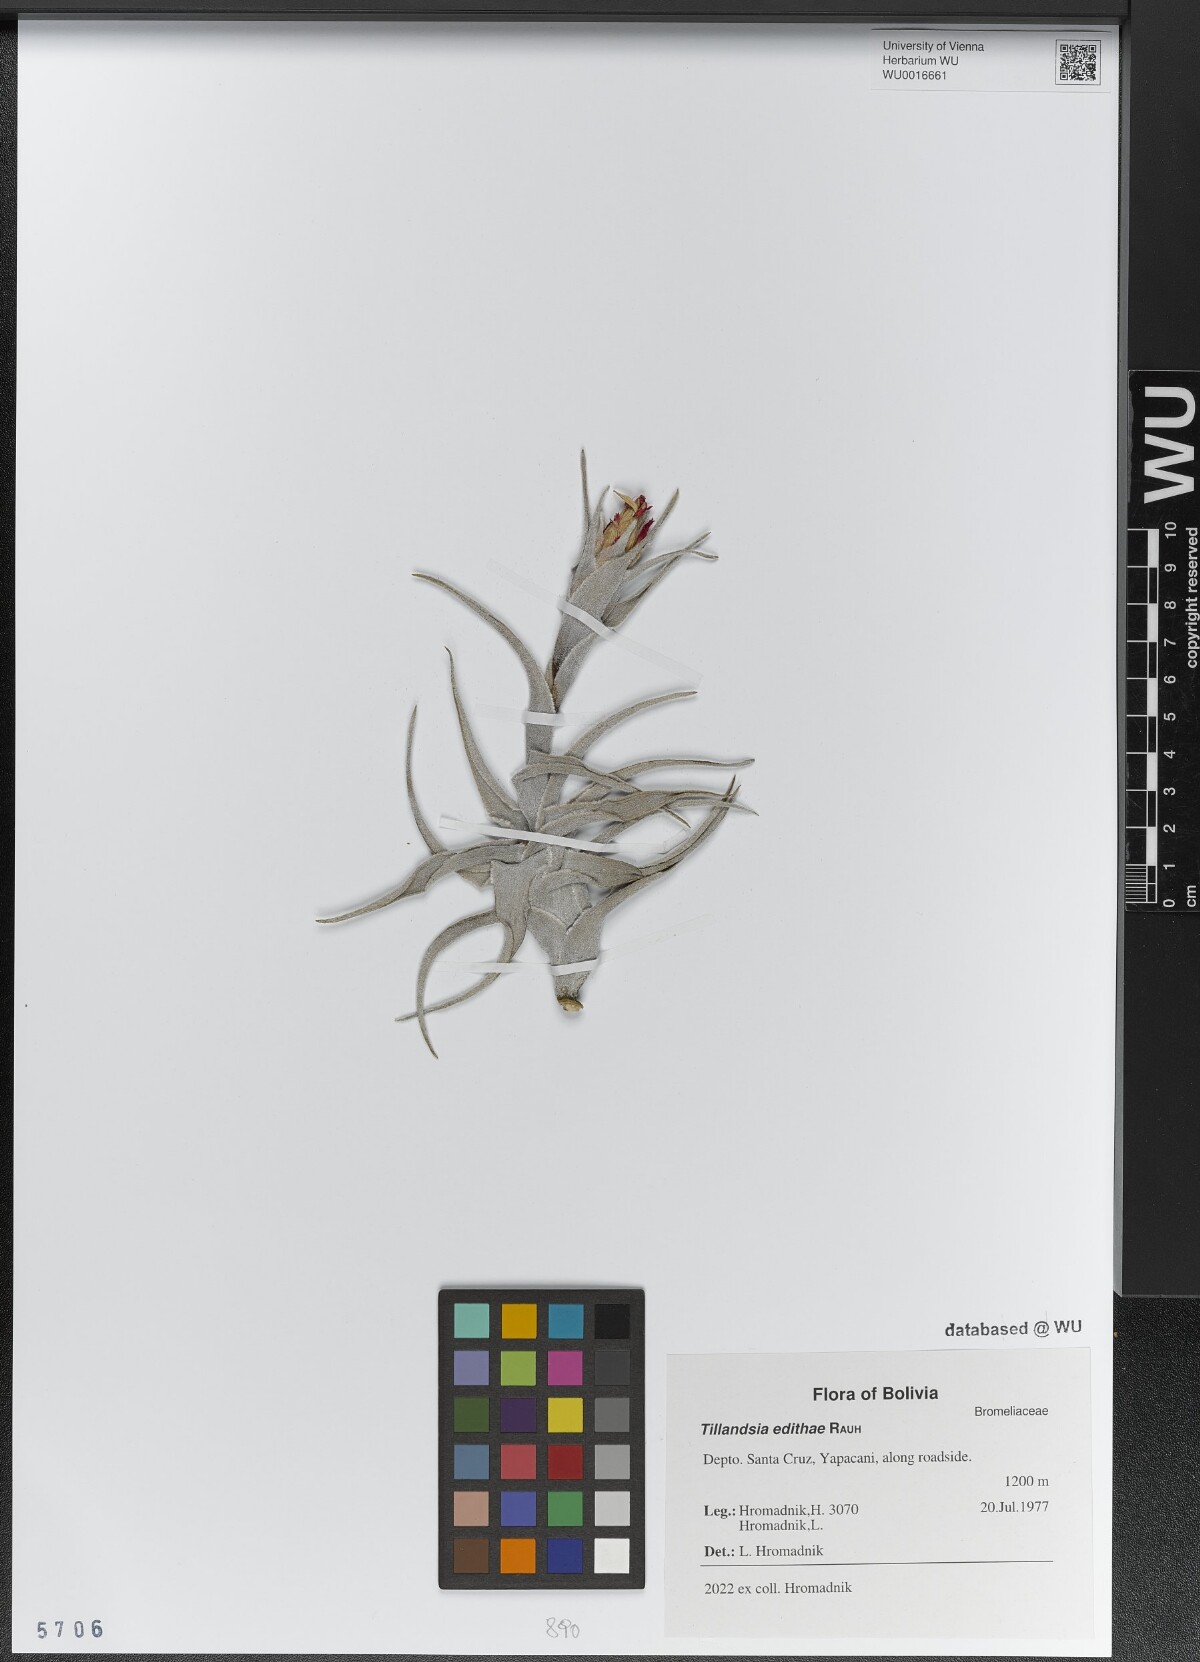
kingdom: Plantae
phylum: Tracheophyta
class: Liliopsida
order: Poales
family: Bromeliaceae
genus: Tillandsia
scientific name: Tillandsia edithae
